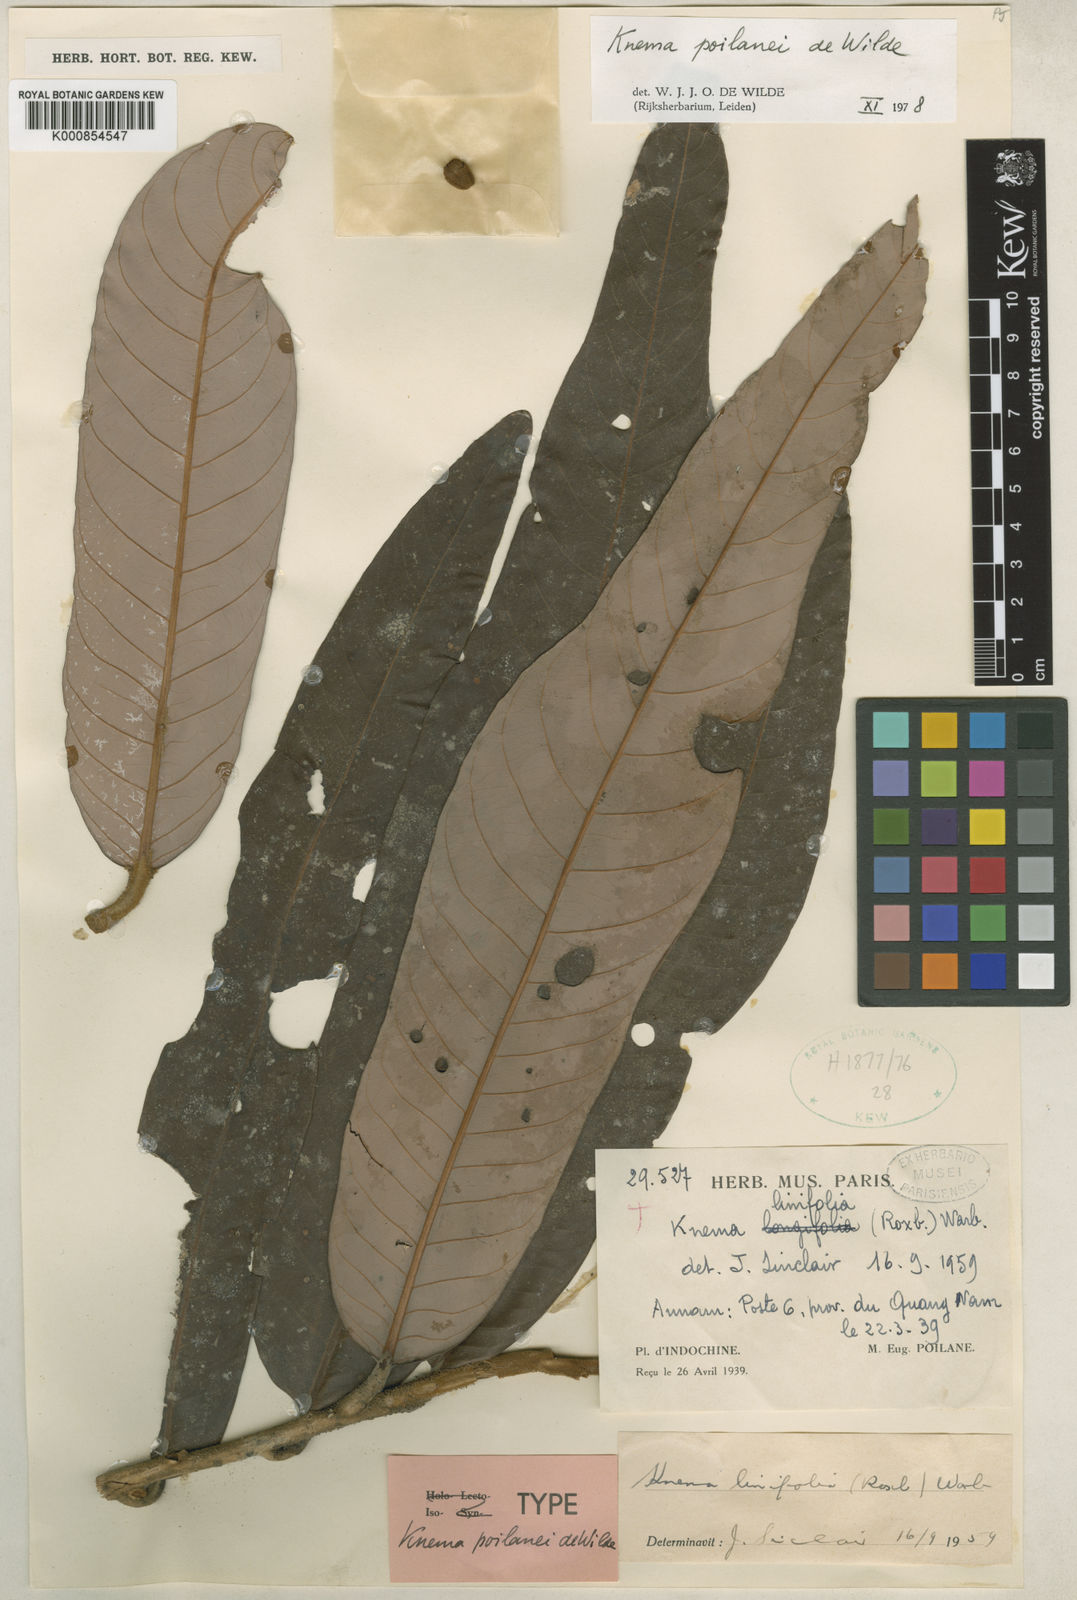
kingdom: Plantae
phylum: Tracheophyta
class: Magnoliopsida
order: Magnoliales
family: Myristicaceae
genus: Knema
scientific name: Knema poilanei
